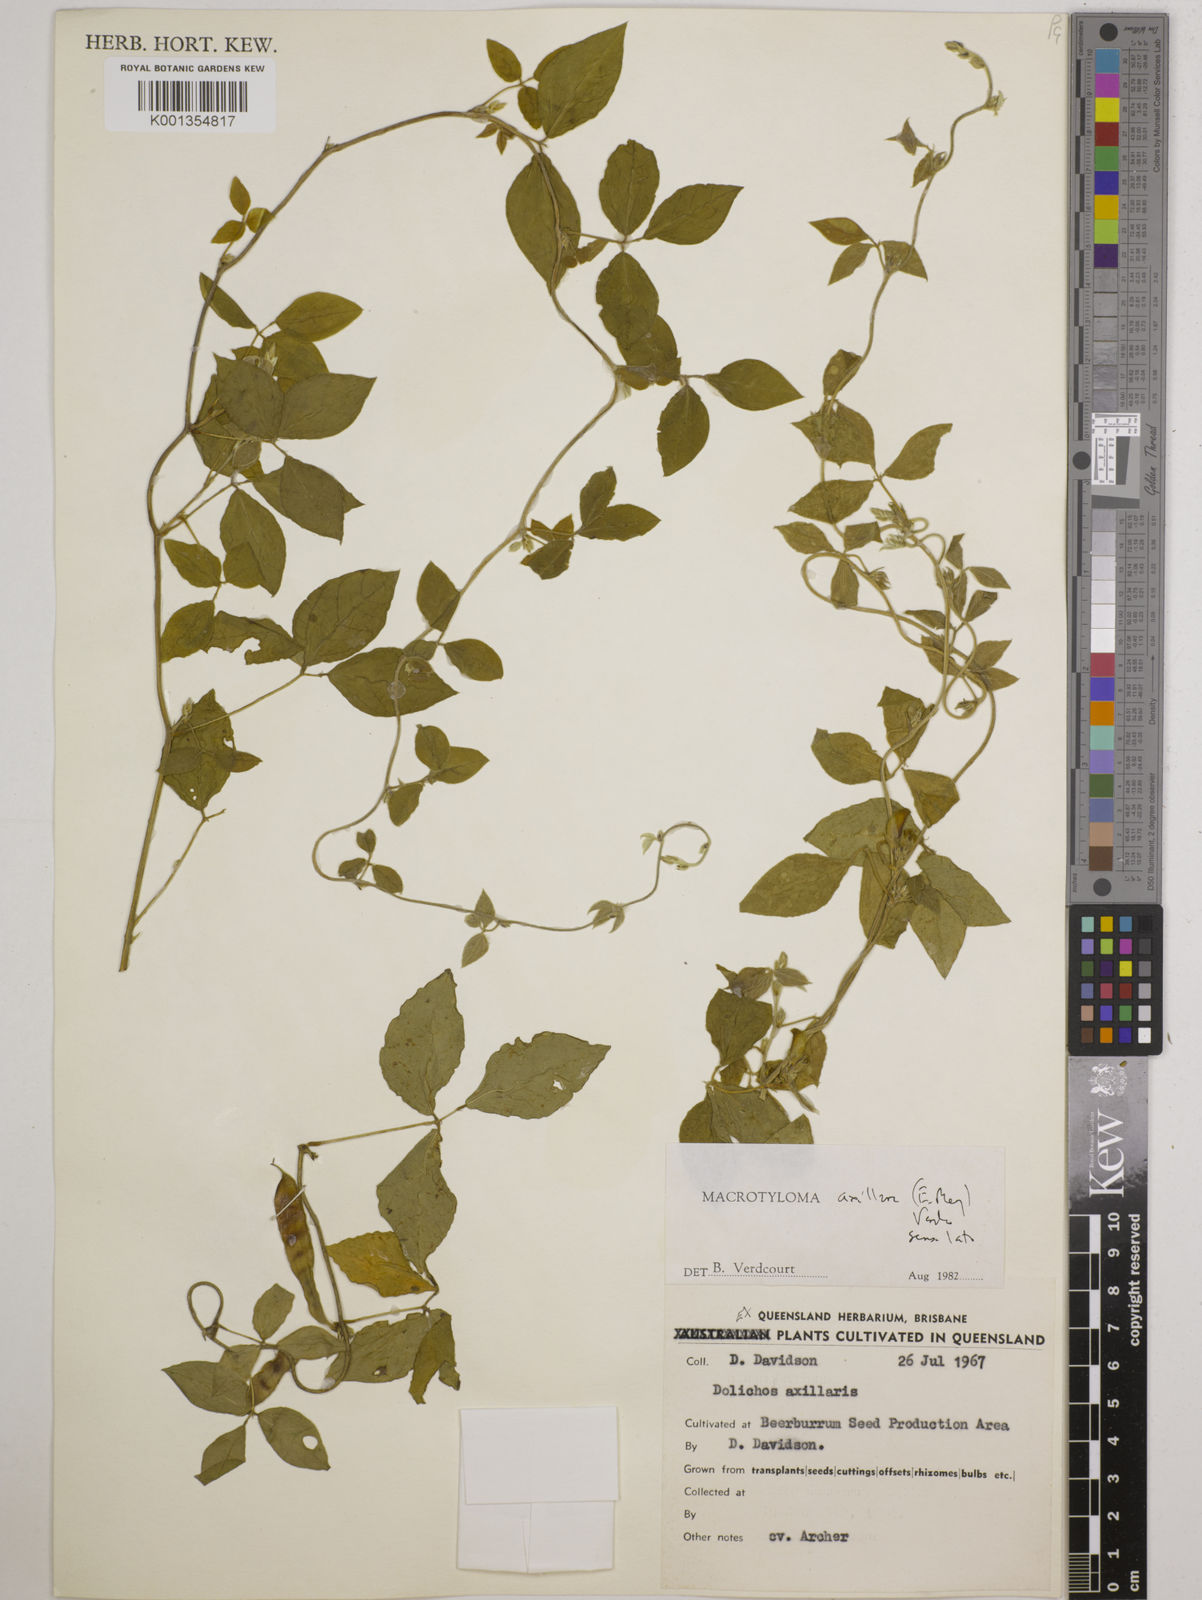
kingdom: Plantae
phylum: Tracheophyta
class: Magnoliopsida
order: Fabales
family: Fabaceae
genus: Macrotyloma
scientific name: Macrotyloma axillare
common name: Perennial horsegram
